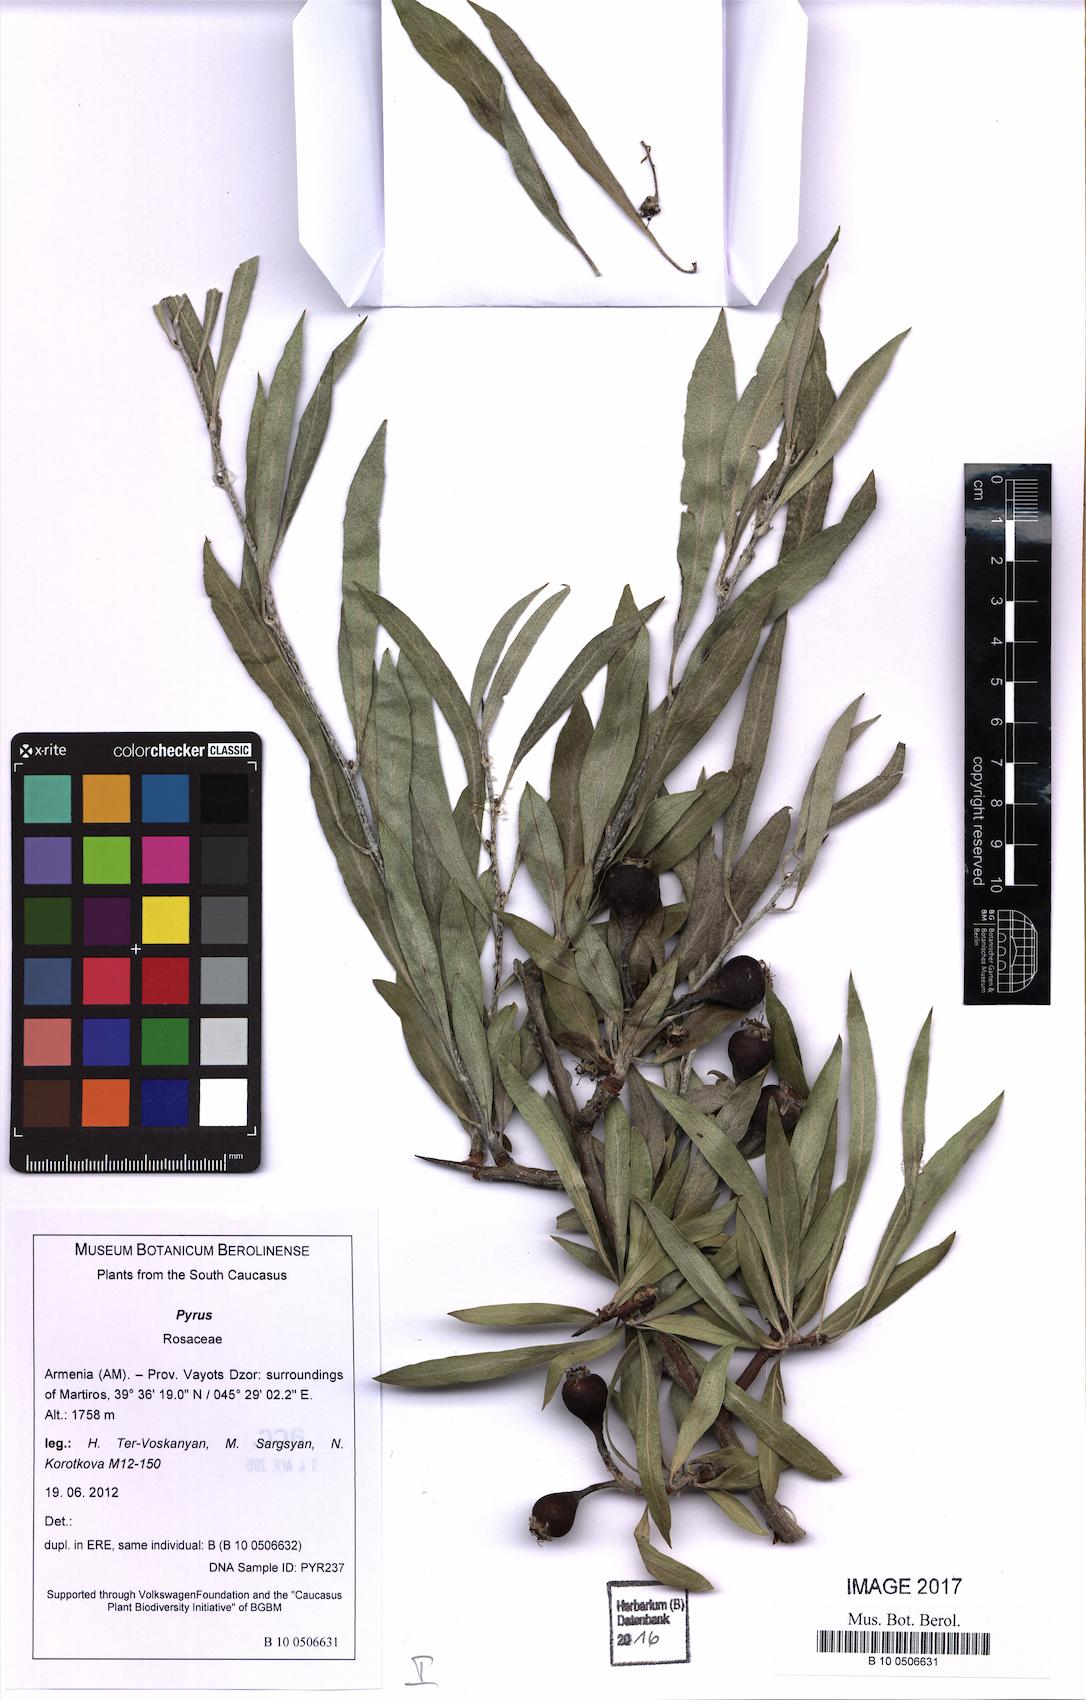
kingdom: Plantae
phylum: Tracheophyta
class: Magnoliopsida
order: Rosales
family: Rosaceae
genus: Pyrus
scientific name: Pyrus
